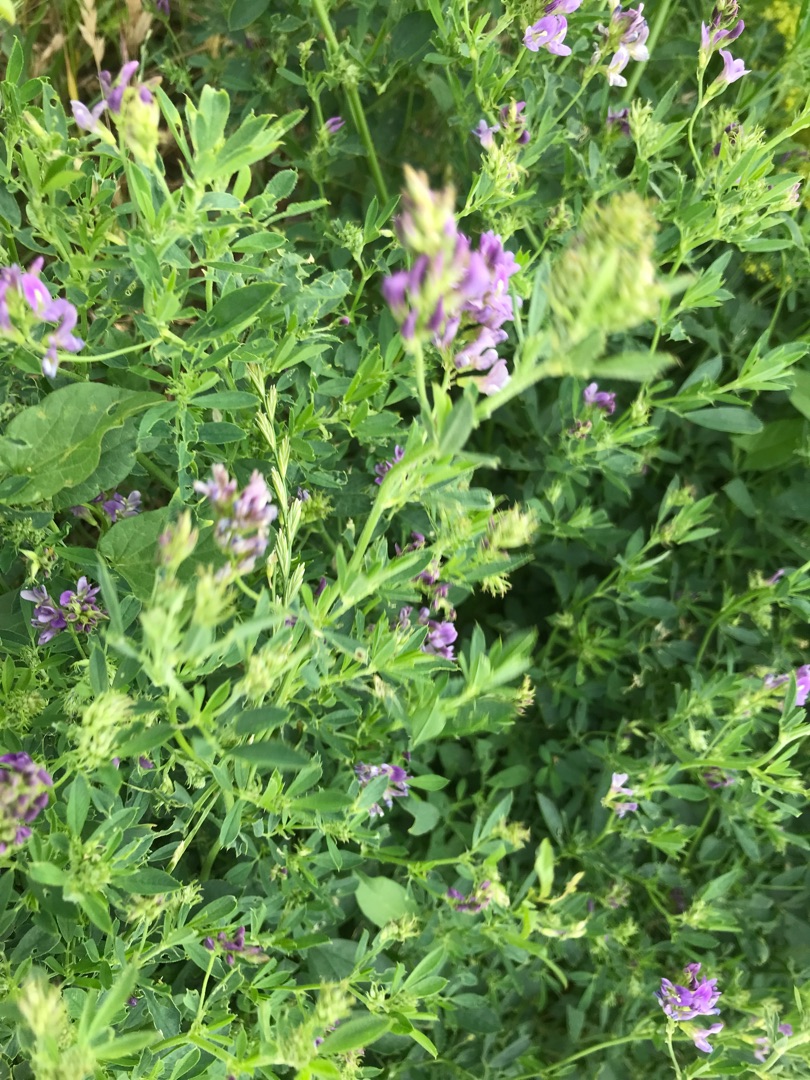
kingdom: Plantae
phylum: Tracheophyta
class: Magnoliopsida
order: Fabales
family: Fabaceae
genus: Medicago
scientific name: Medicago sativa
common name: Lucerne
